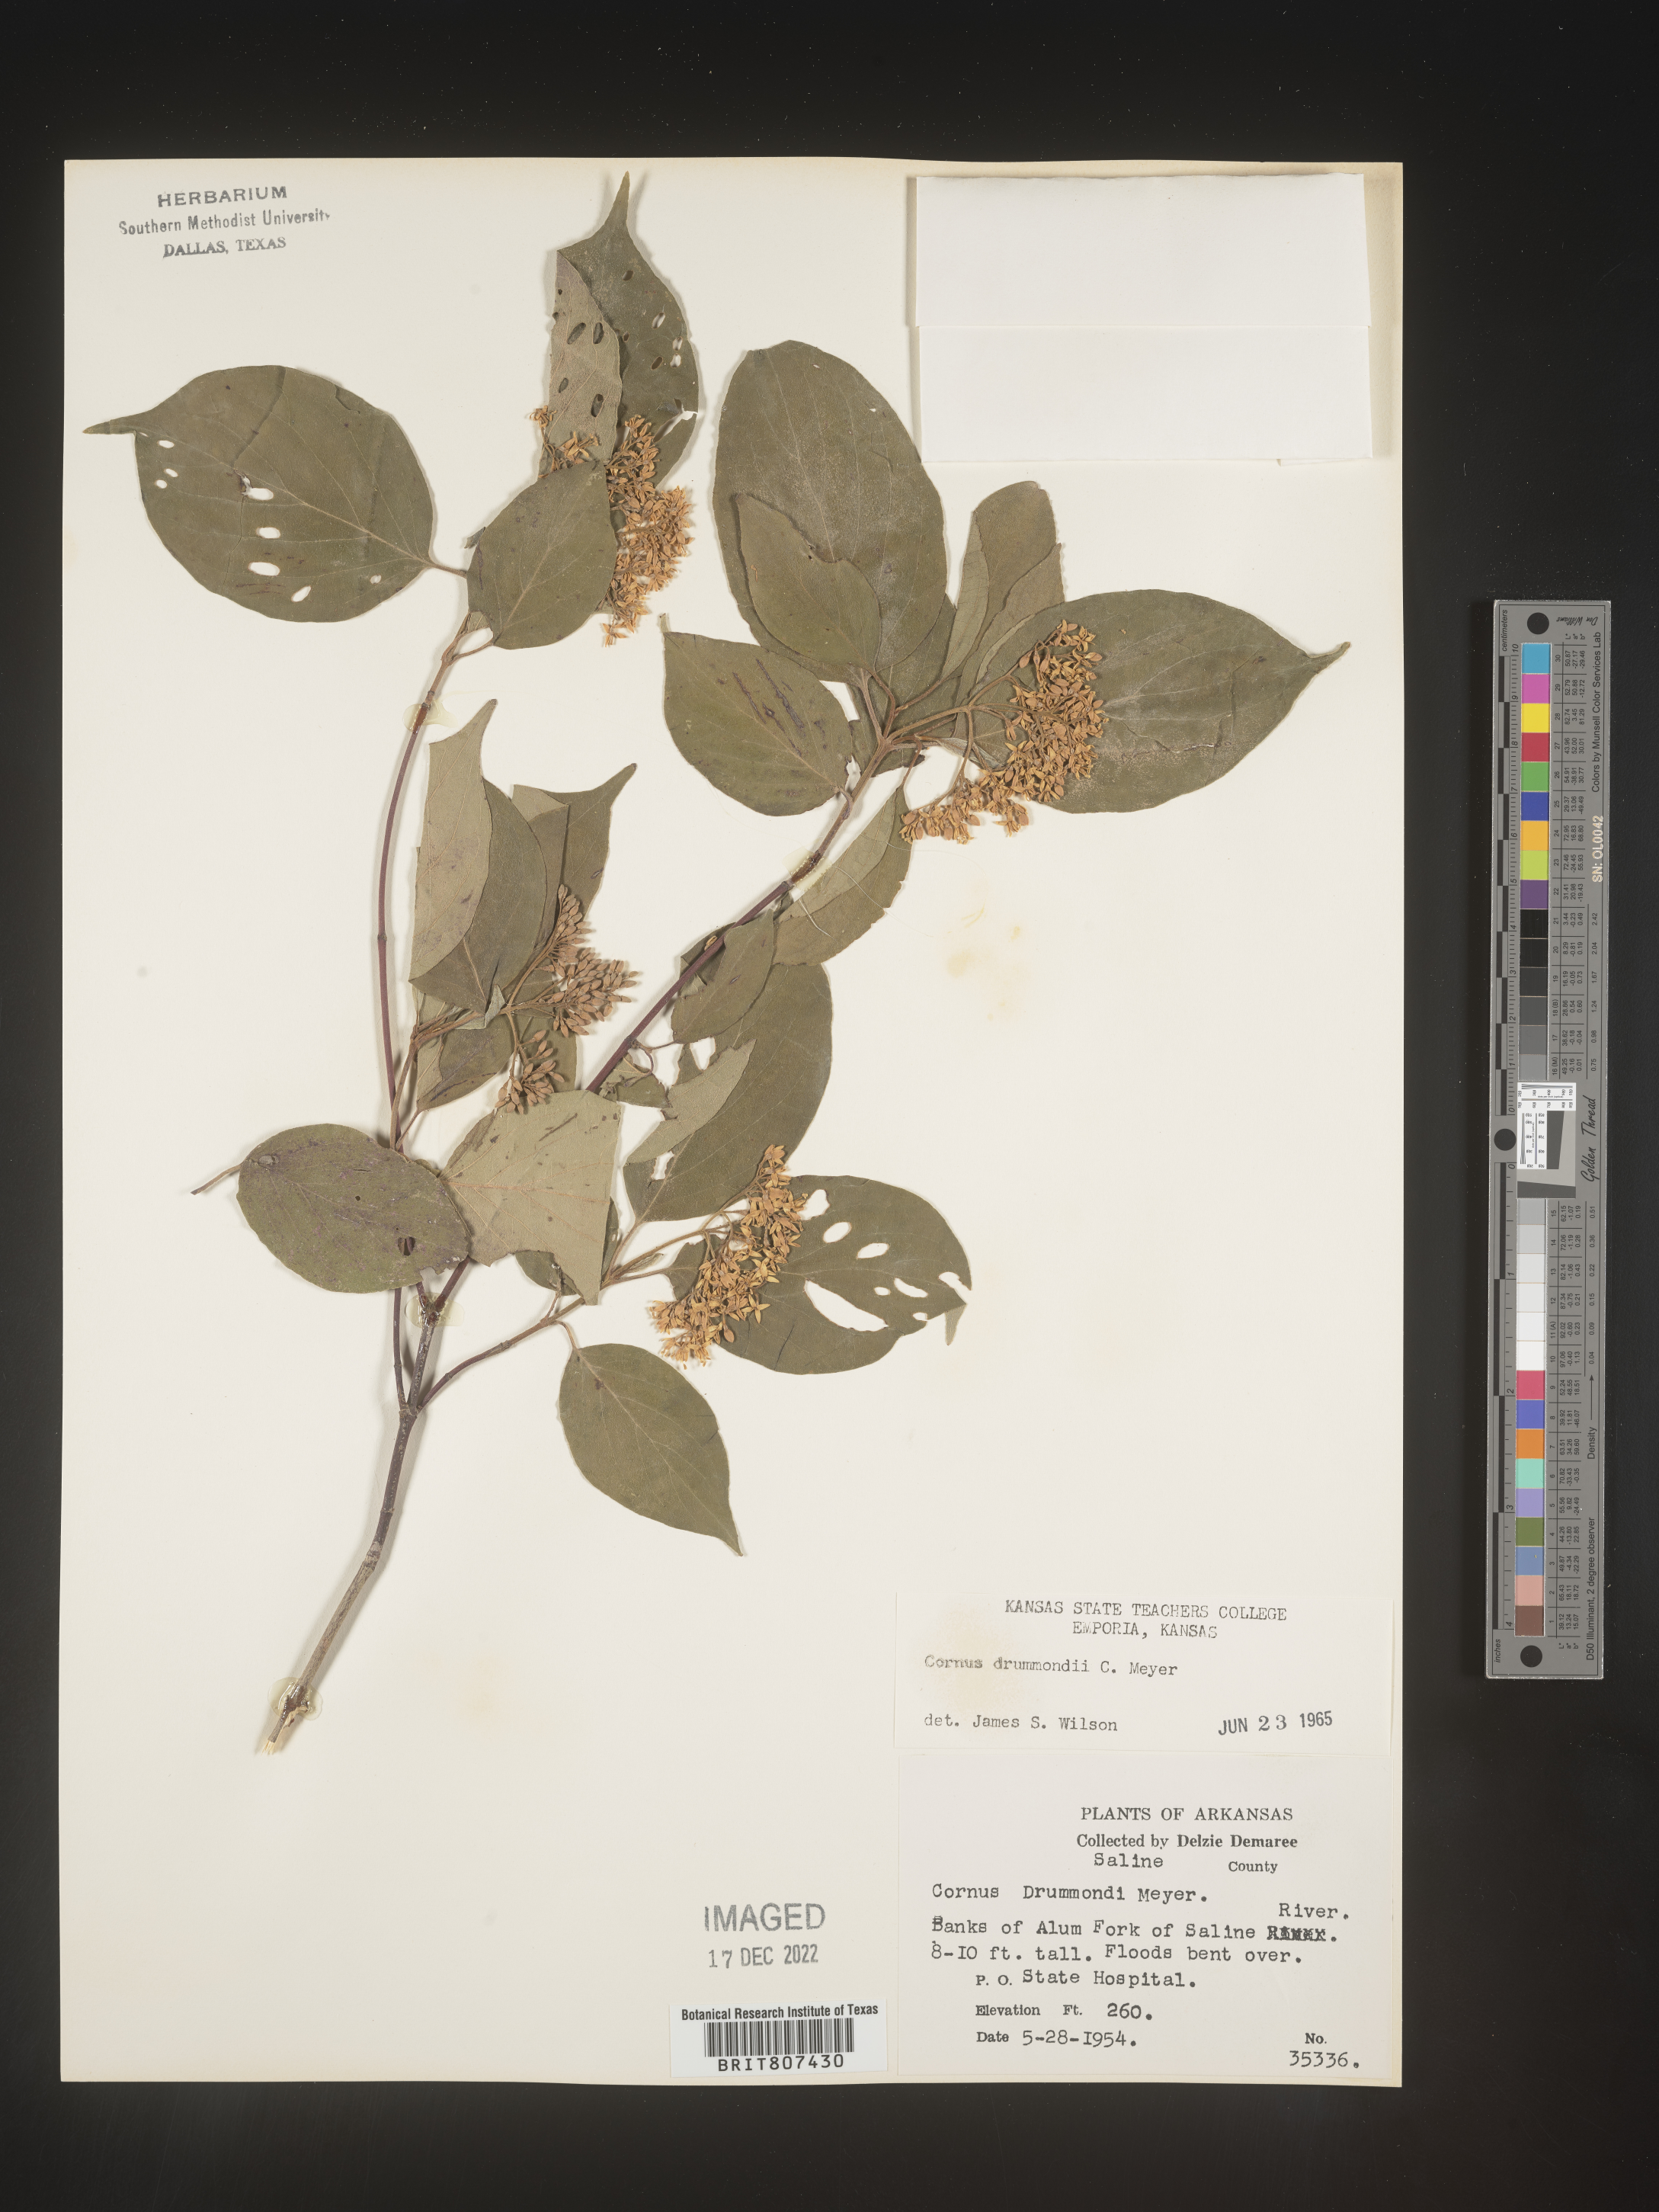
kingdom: Plantae
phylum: Tracheophyta
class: Magnoliopsida
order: Cornales
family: Cornaceae
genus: Cornus
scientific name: Cornus drummondii
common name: Rough-leaf dogwood
